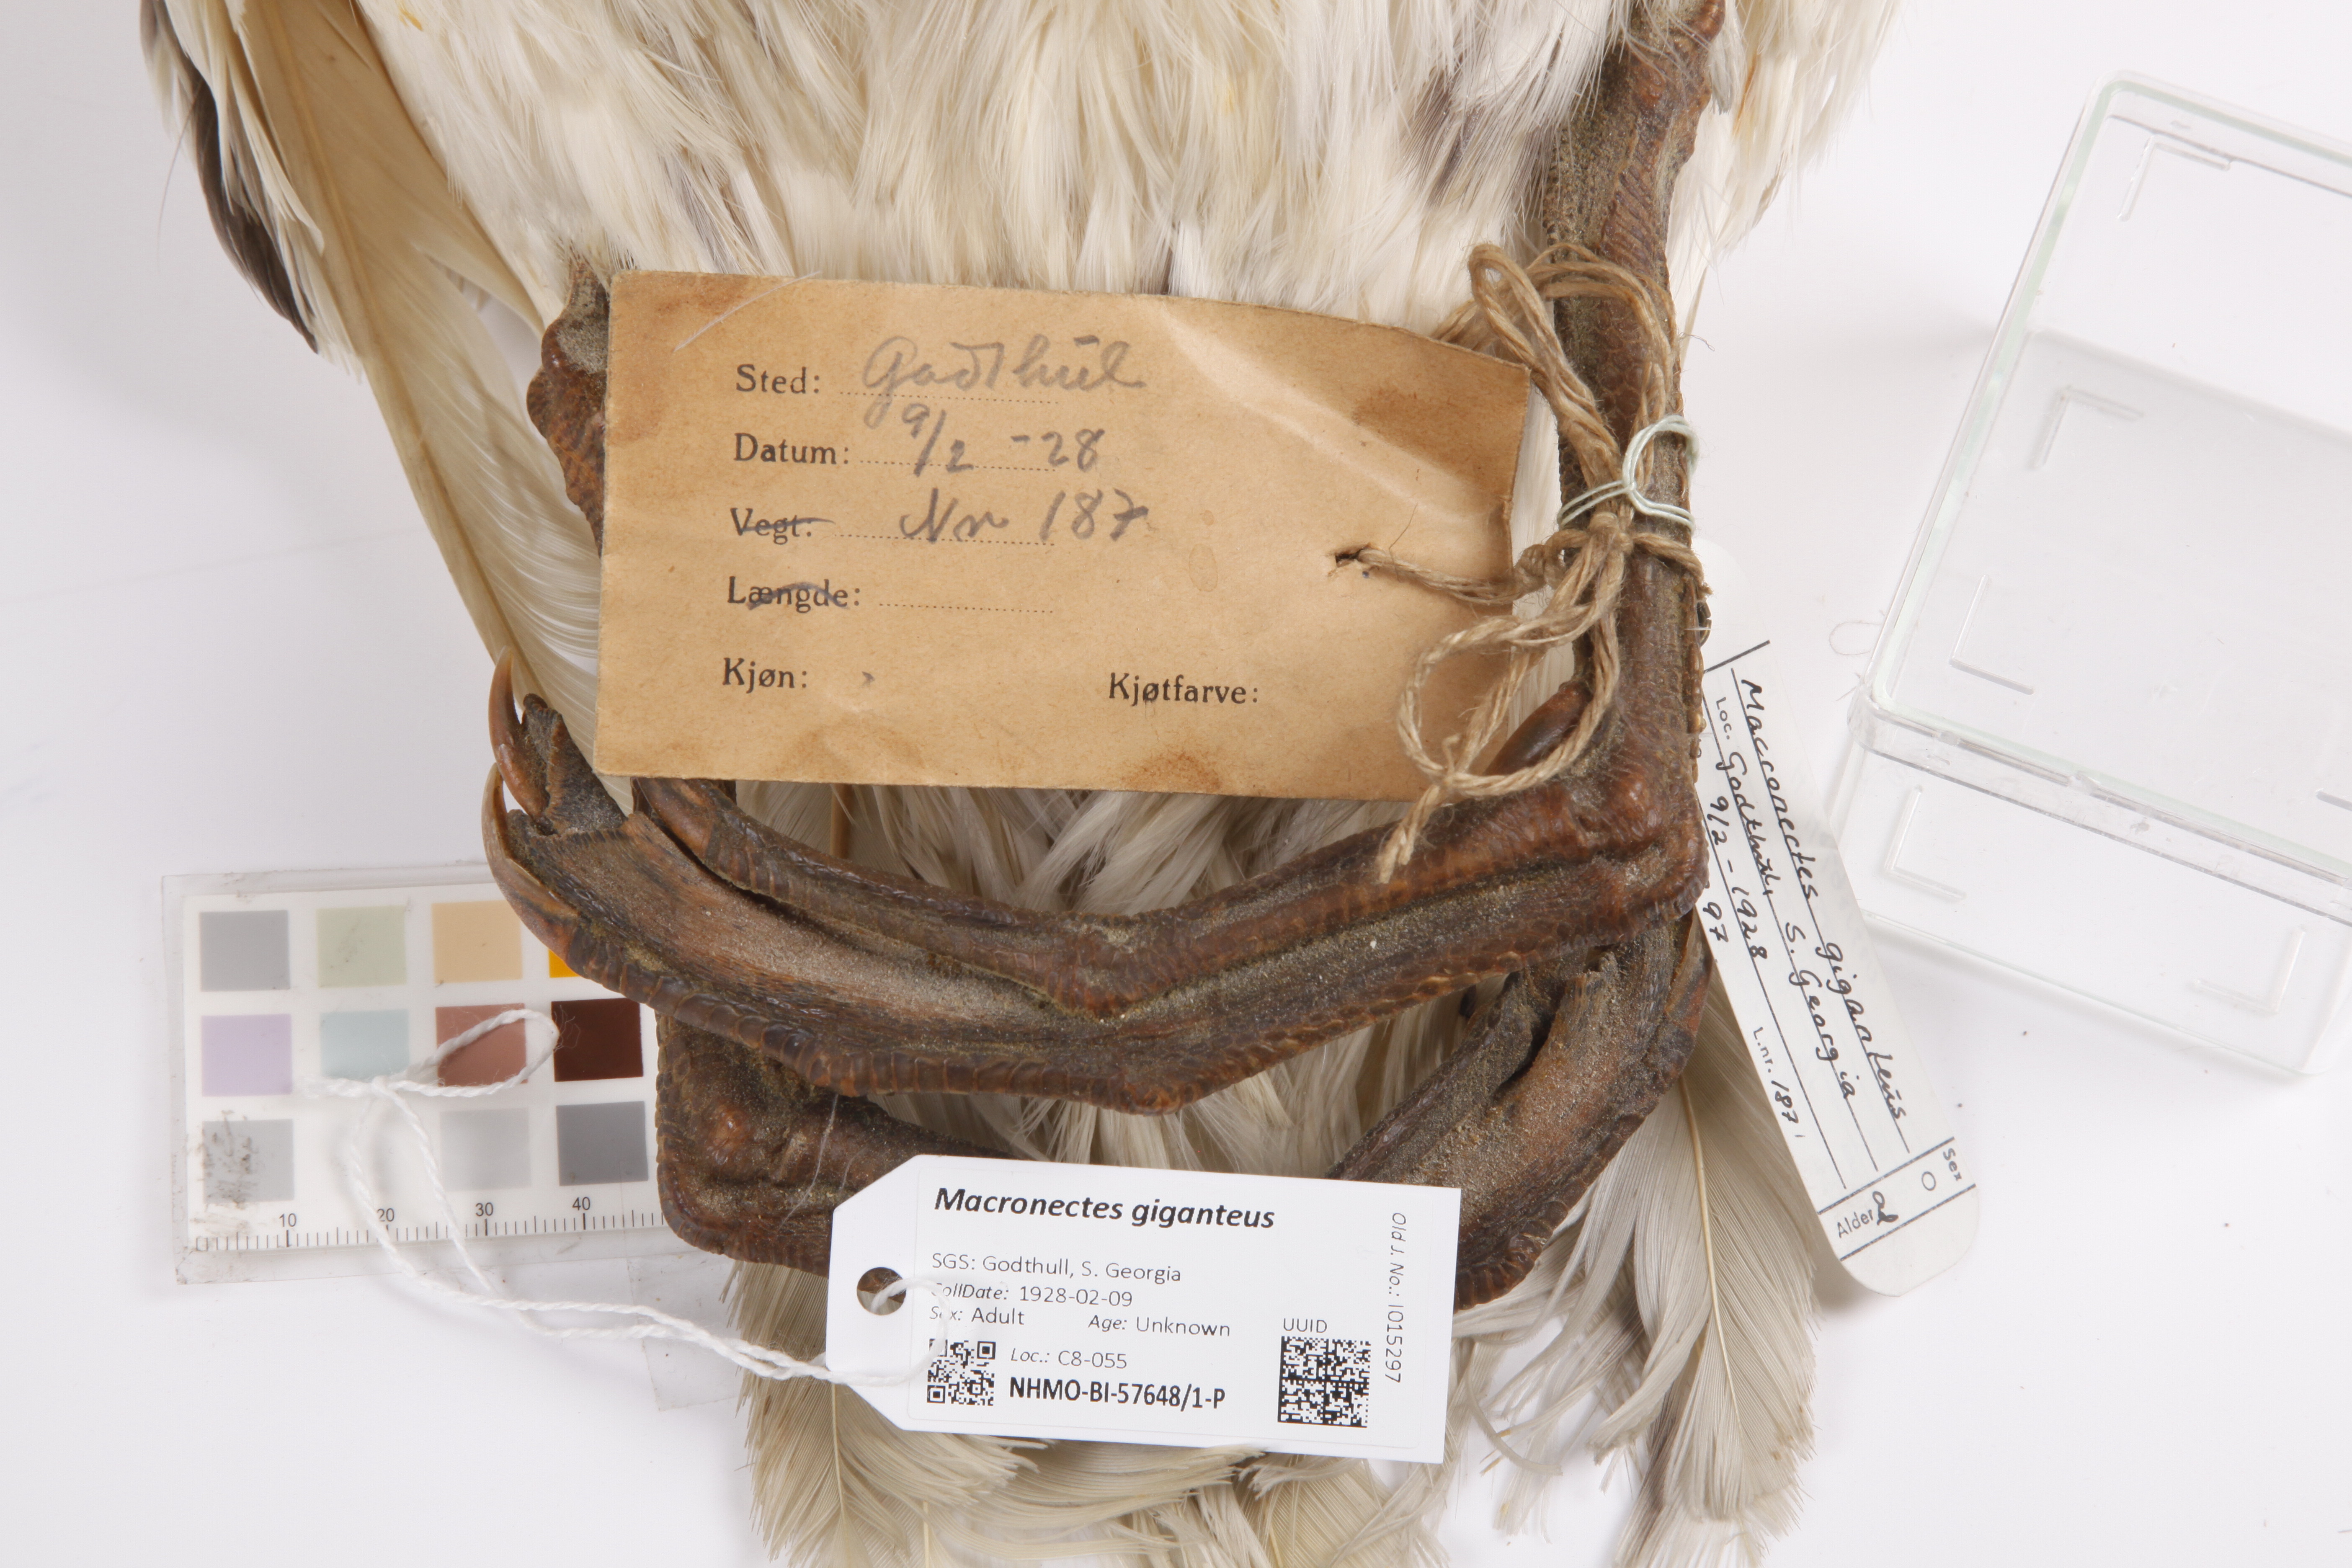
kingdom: Animalia
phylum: Chordata
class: Aves
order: Procellariiformes
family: Procellariidae
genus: Macronectes
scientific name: Macronectes giganteus
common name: Southern giant petrel
